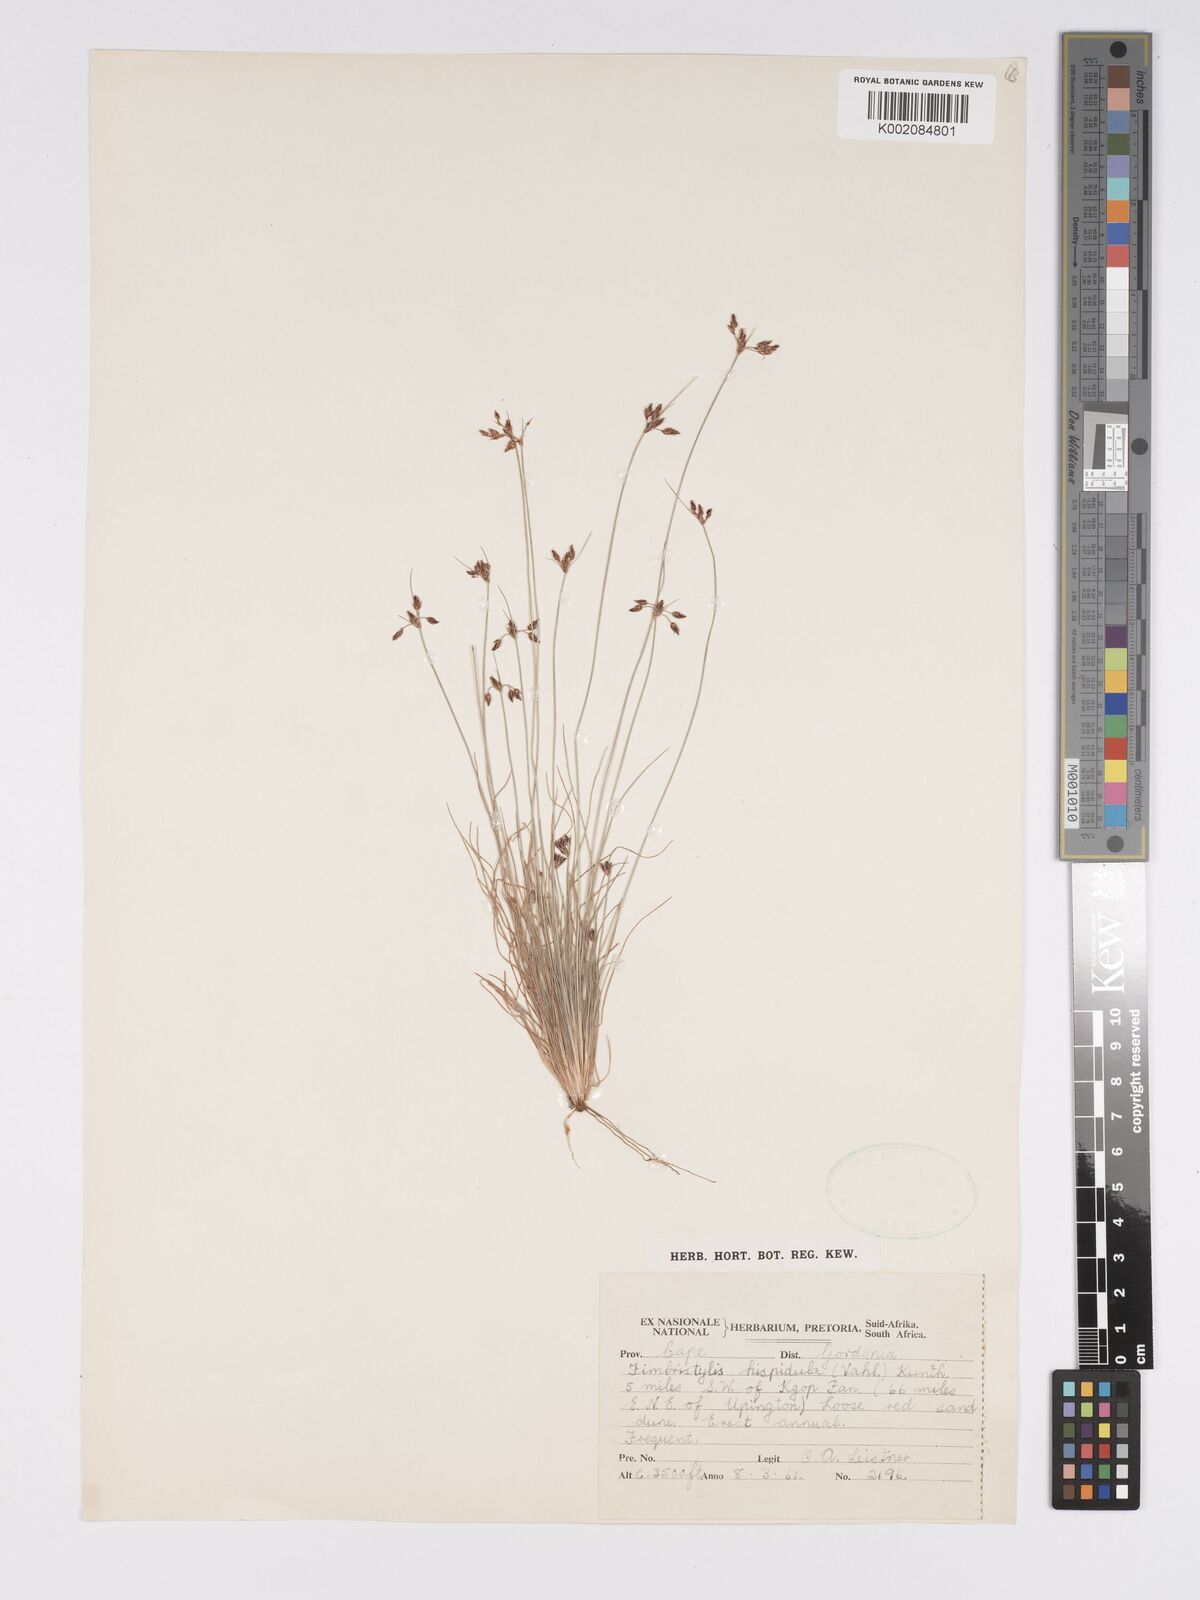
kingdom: Plantae
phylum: Tracheophyta
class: Liliopsida
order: Poales
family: Cyperaceae
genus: Bulbostylis
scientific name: Bulbostylis hispidula
